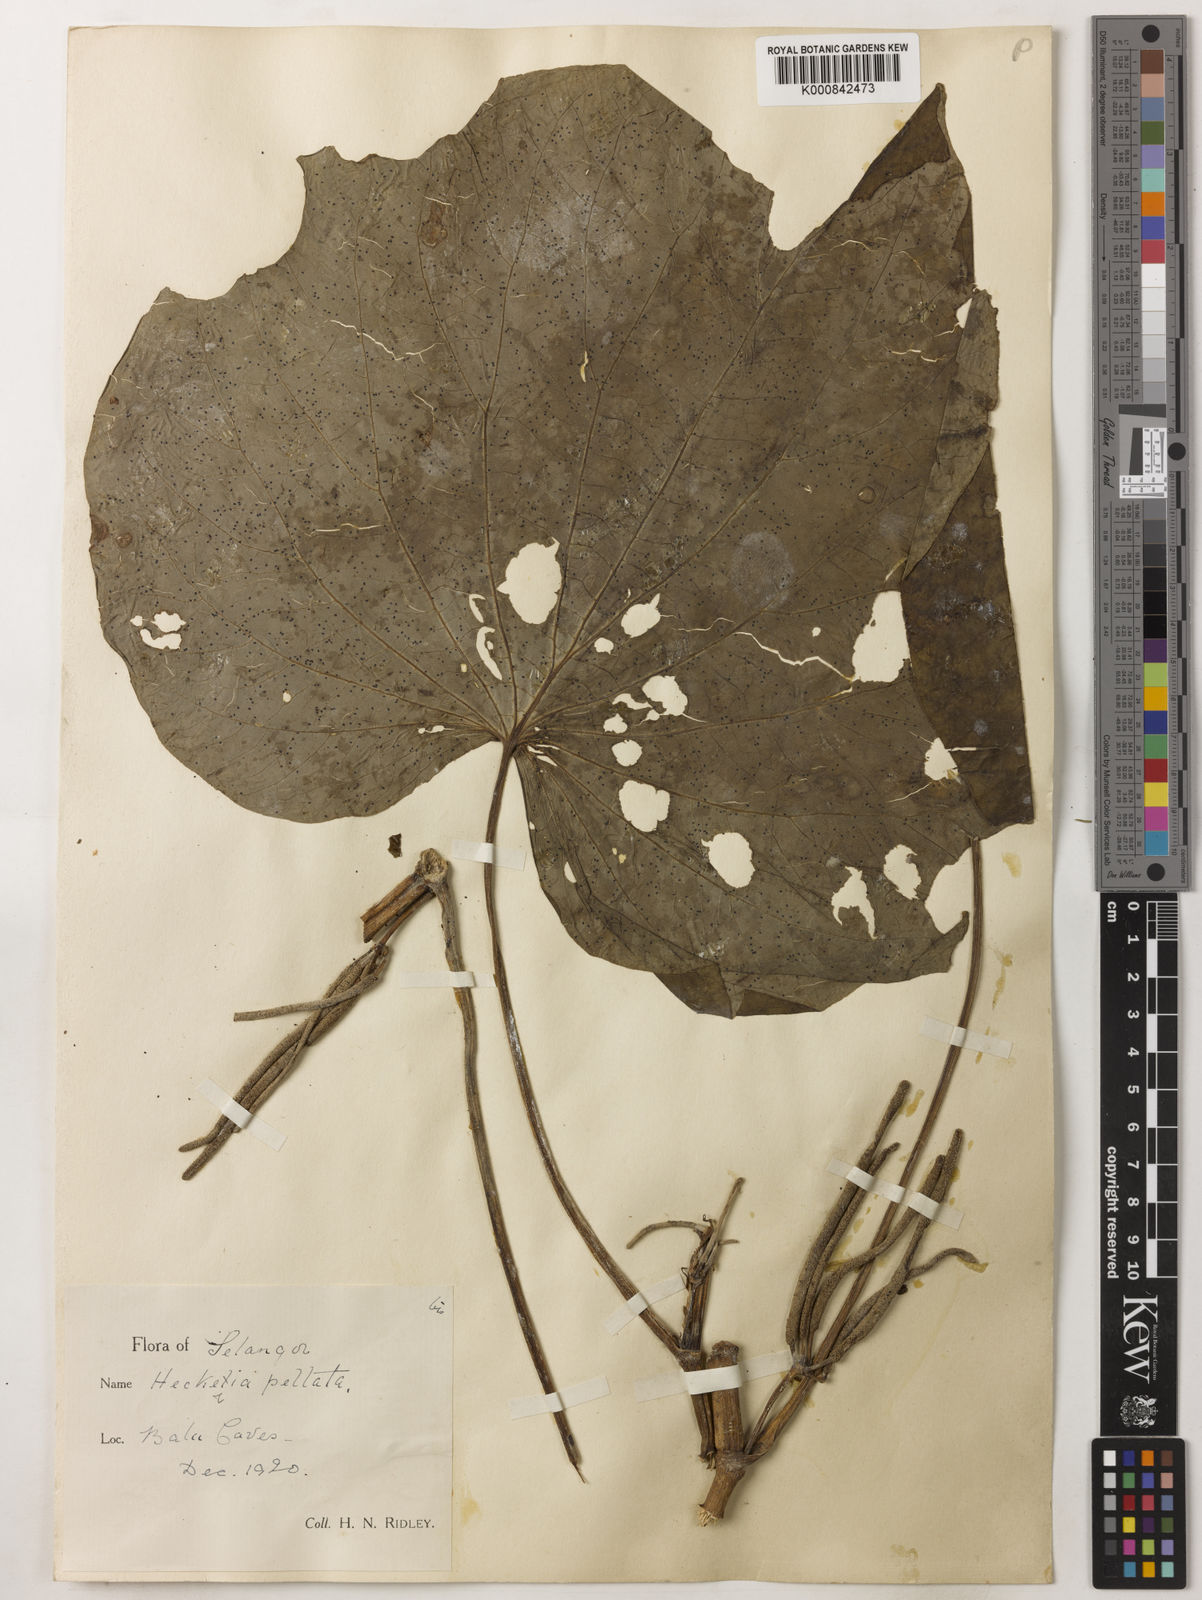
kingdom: Plantae
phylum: Tracheophyta
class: Magnoliopsida
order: Piperales
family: Piperaceae
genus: Piper
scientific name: Piper umbellatum
